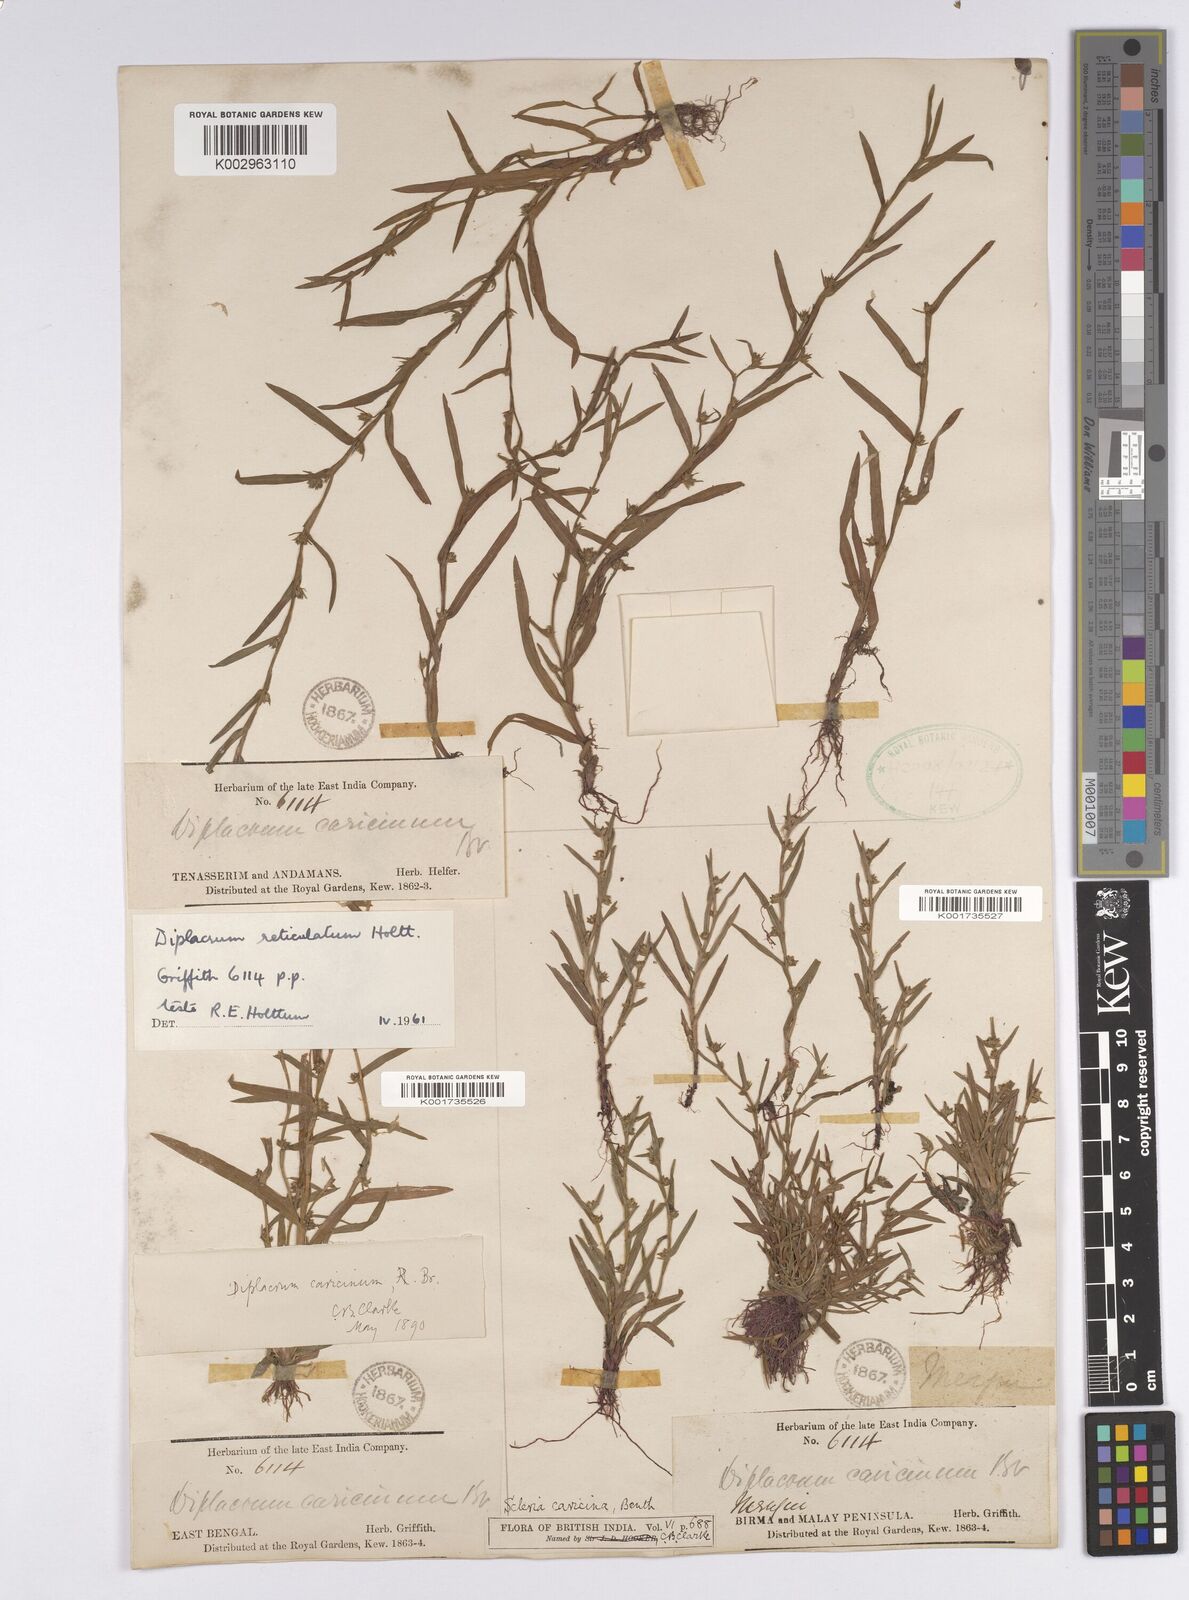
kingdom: Plantae
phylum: Tracheophyta
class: Liliopsida
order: Poales
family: Cyperaceae
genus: Diplacrum
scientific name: Diplacrum caricinum
